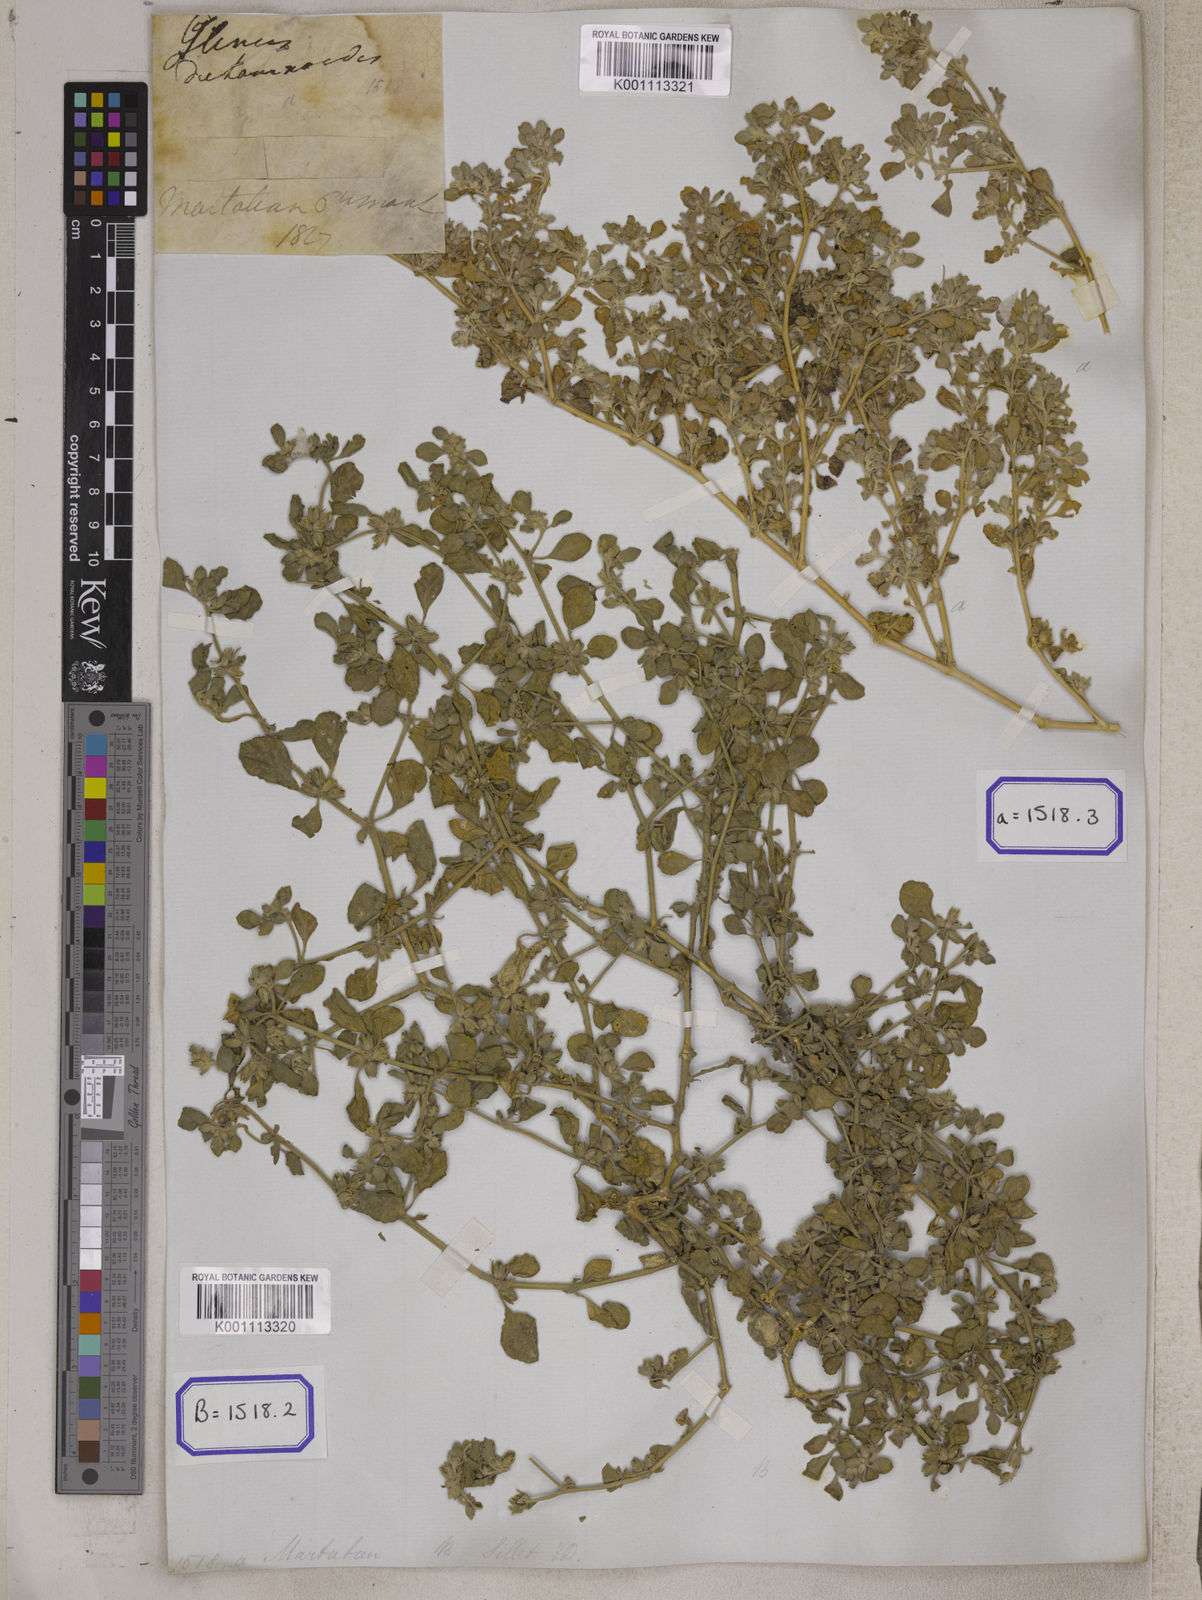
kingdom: Plantae
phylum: Tracheophyta
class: Magnoliopsida
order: Caryophyllales
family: Molluginaceae
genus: Glinus
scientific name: Glinus
